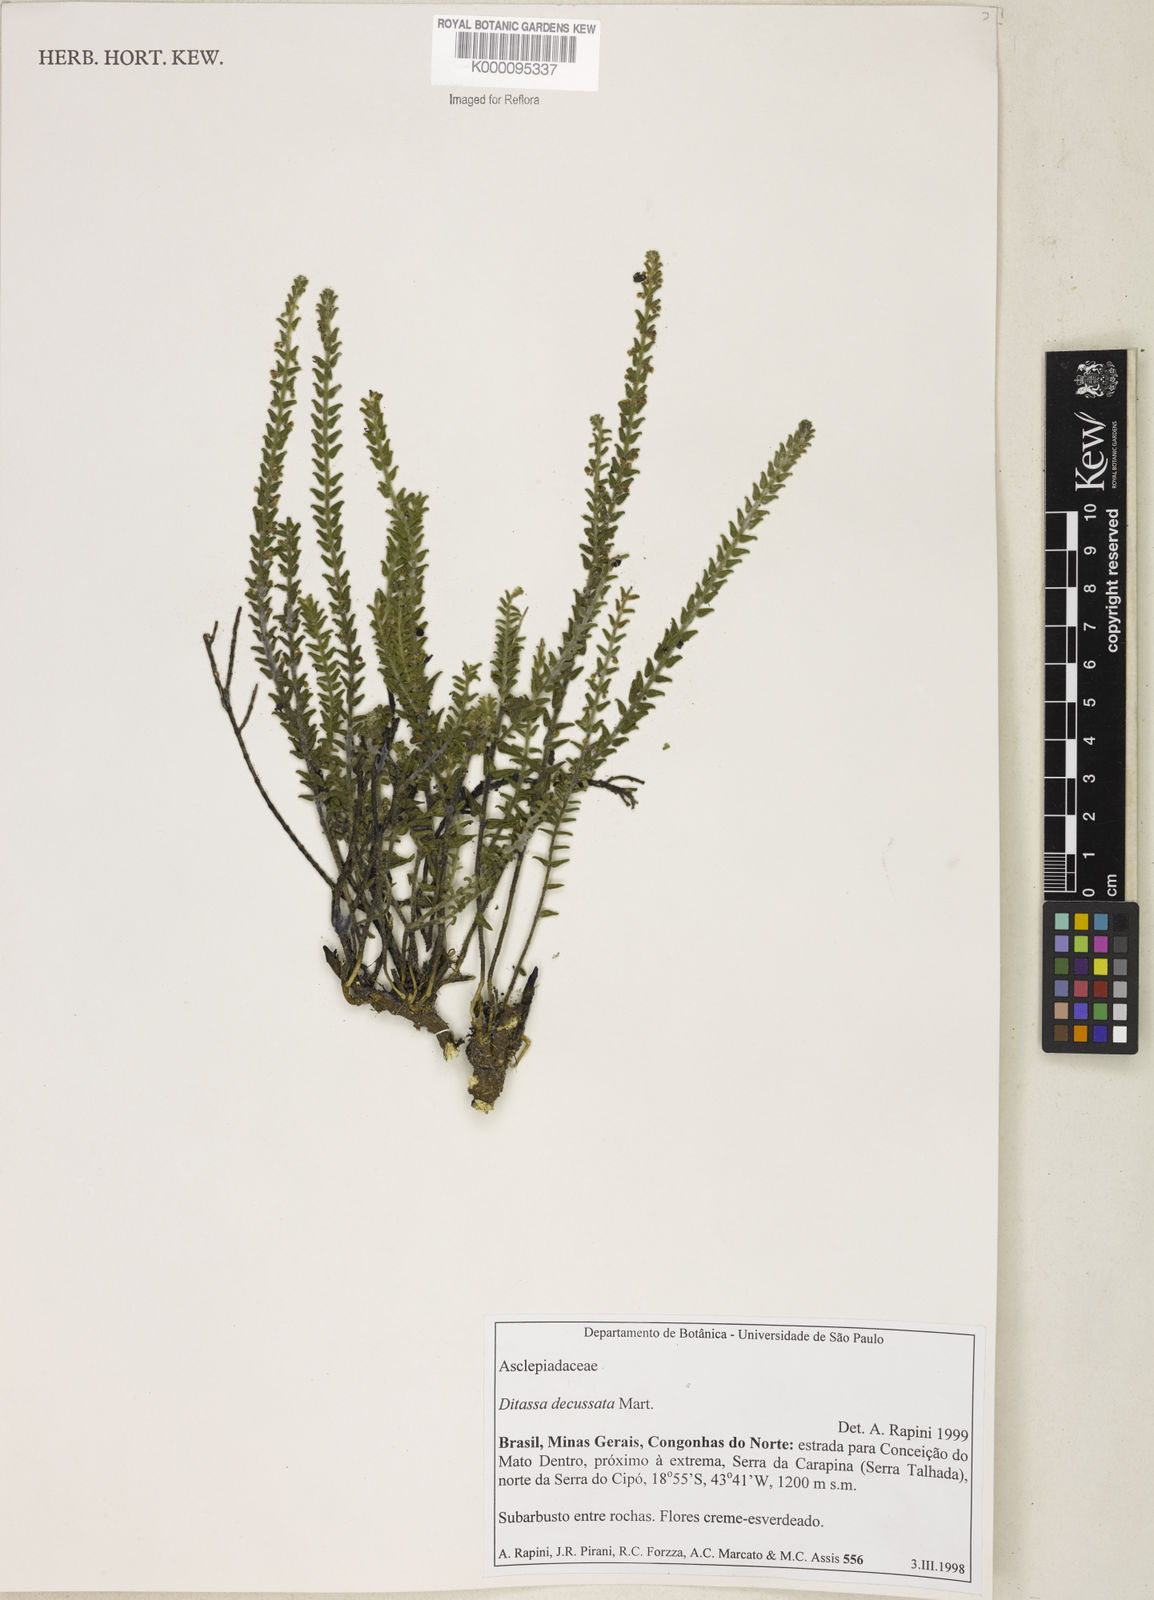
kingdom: Plantae
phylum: Tracheophyta
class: Magnoliopsida
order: Gentianales
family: Apocynaceae
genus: Minaria
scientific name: Minaria decussata
